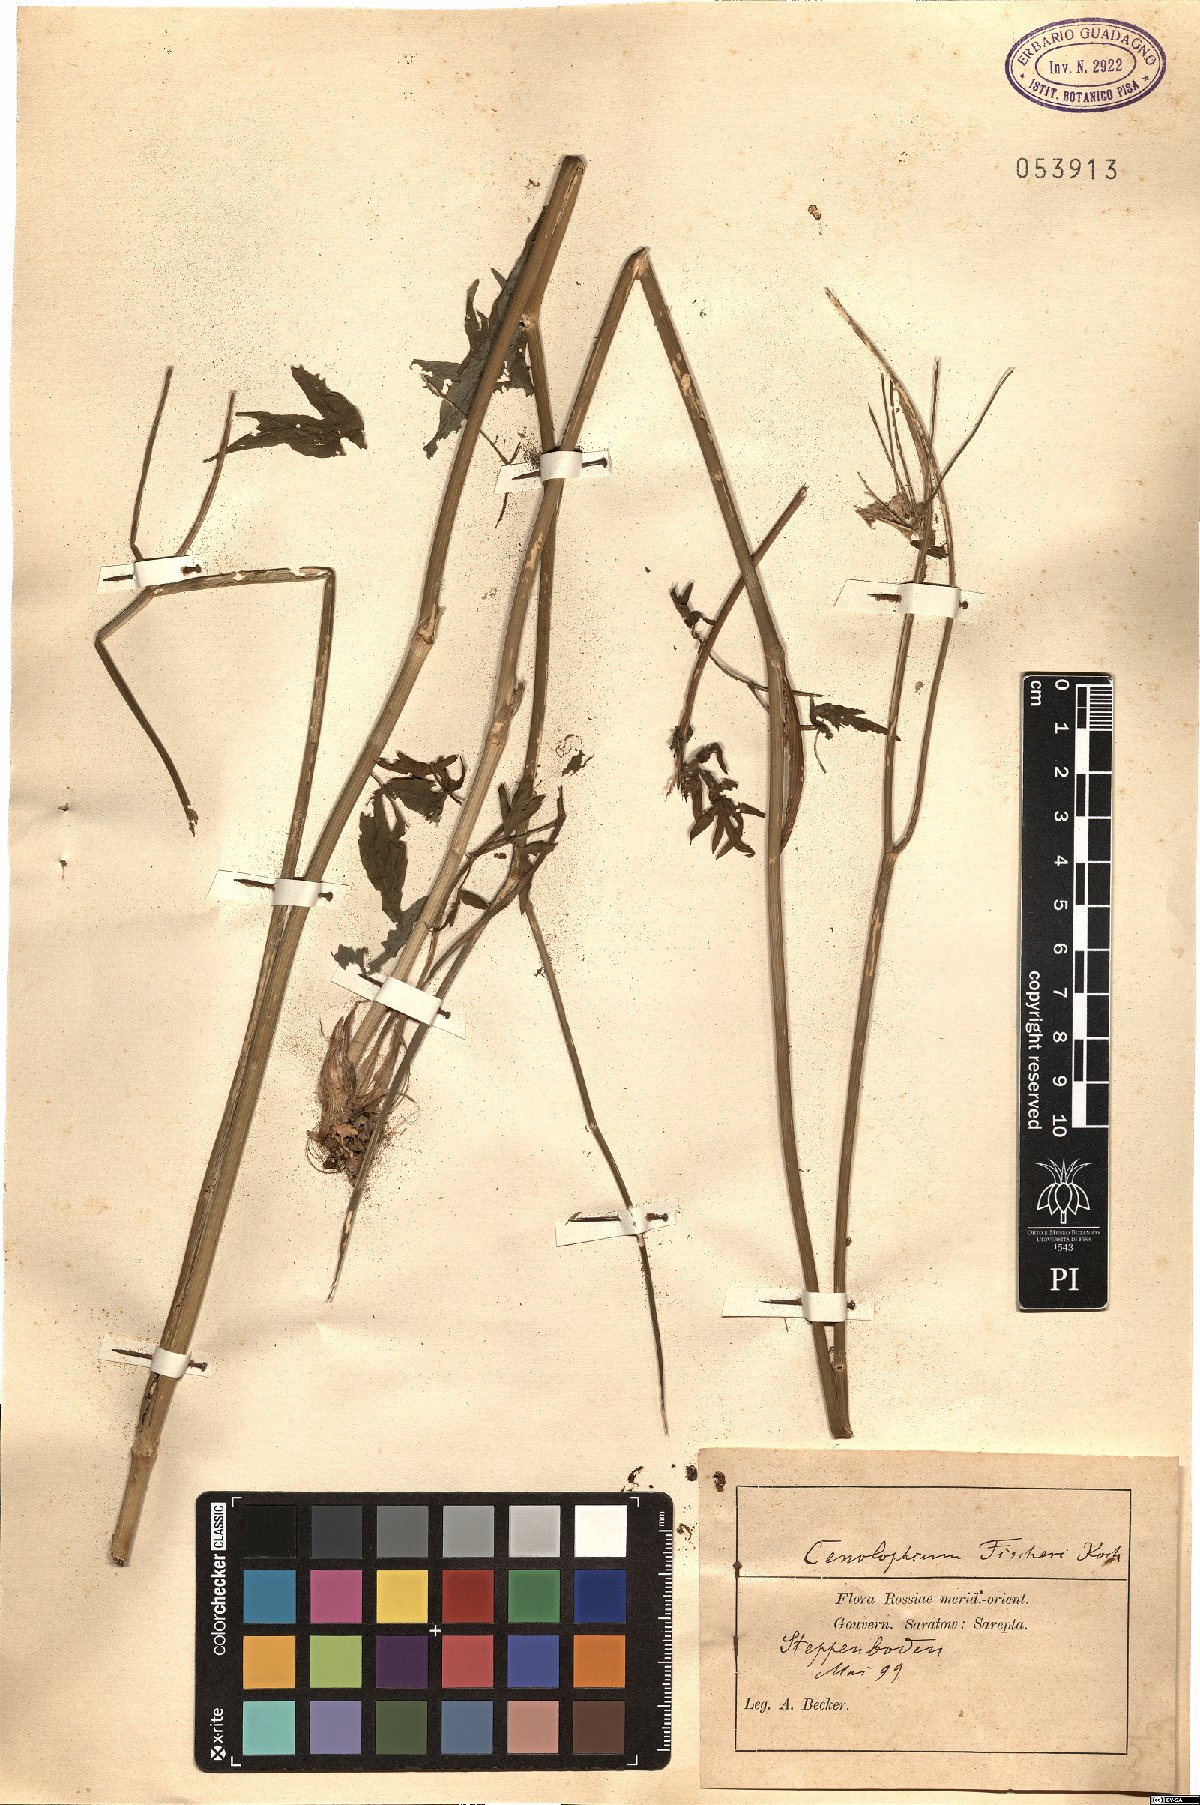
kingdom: Plantae
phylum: Tracheophyta
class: Magnoliopsida
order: Apiales
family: Apiaceae
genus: Cenolophium
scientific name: Cenolophium fischeri
